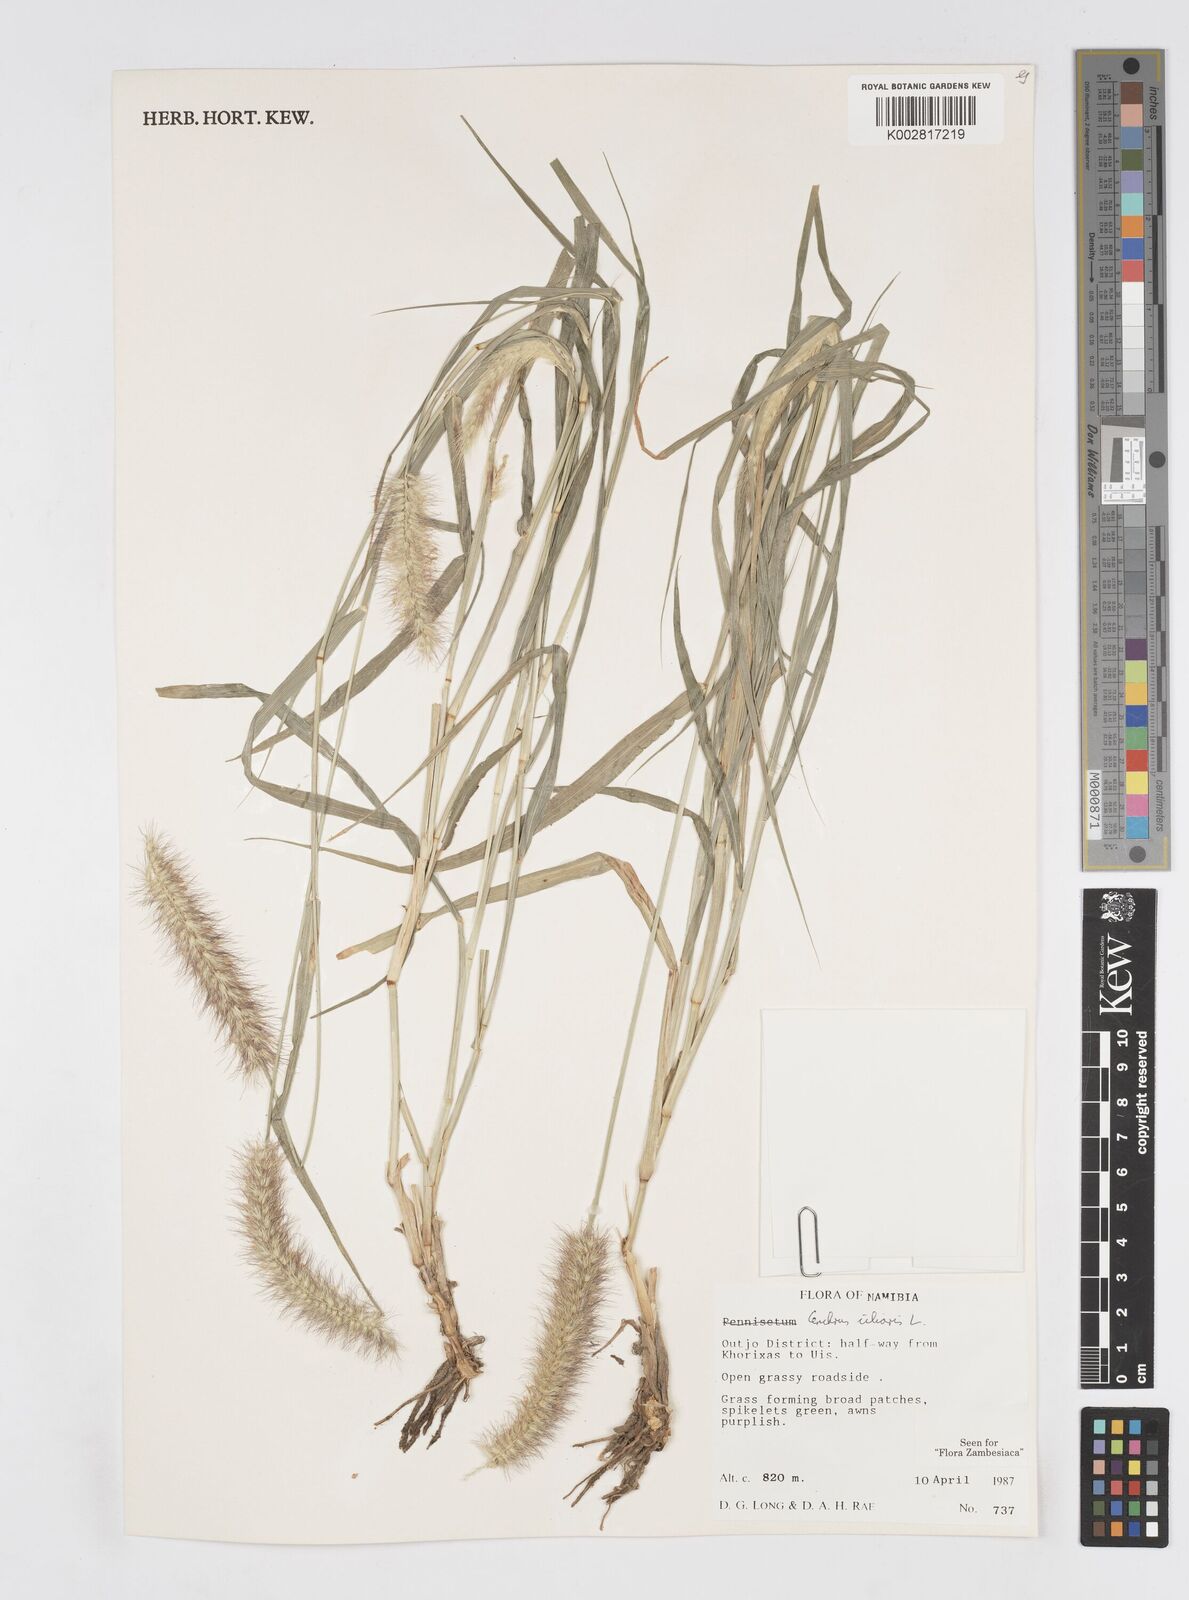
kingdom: Plantae
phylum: Tracheophyta
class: Liliopsida
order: Poales
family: Poaceae
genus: Cenchrus
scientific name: Cenchrus ciliaris
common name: Buffelgrass
